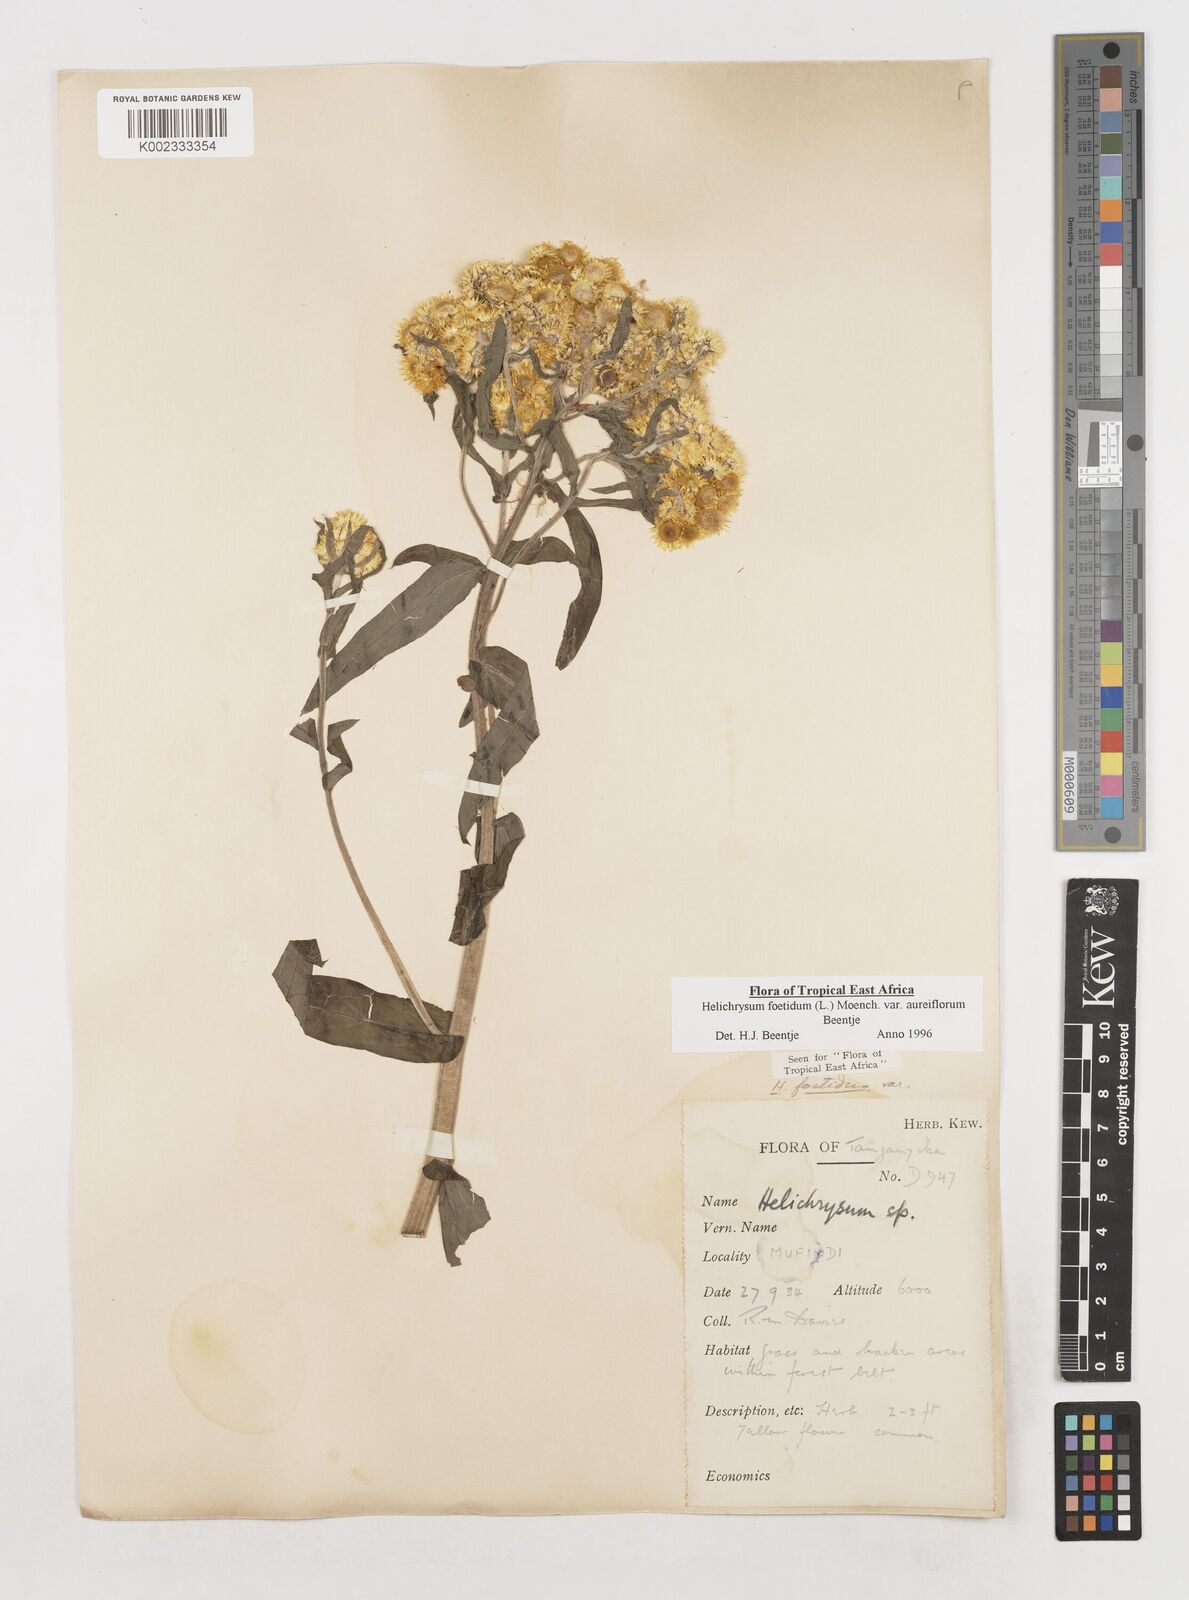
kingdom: Plantae
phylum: Tracheophyta
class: Magnoliopsida
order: Asterales
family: Asteraceae
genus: Helichrysum
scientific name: Helichrysum foetidum
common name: Stinking everlasting
